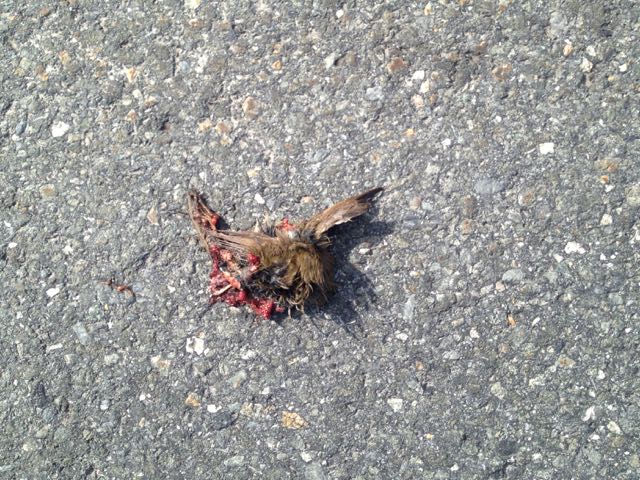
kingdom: Animalia
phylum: Chordata
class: Aves
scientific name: Aves
